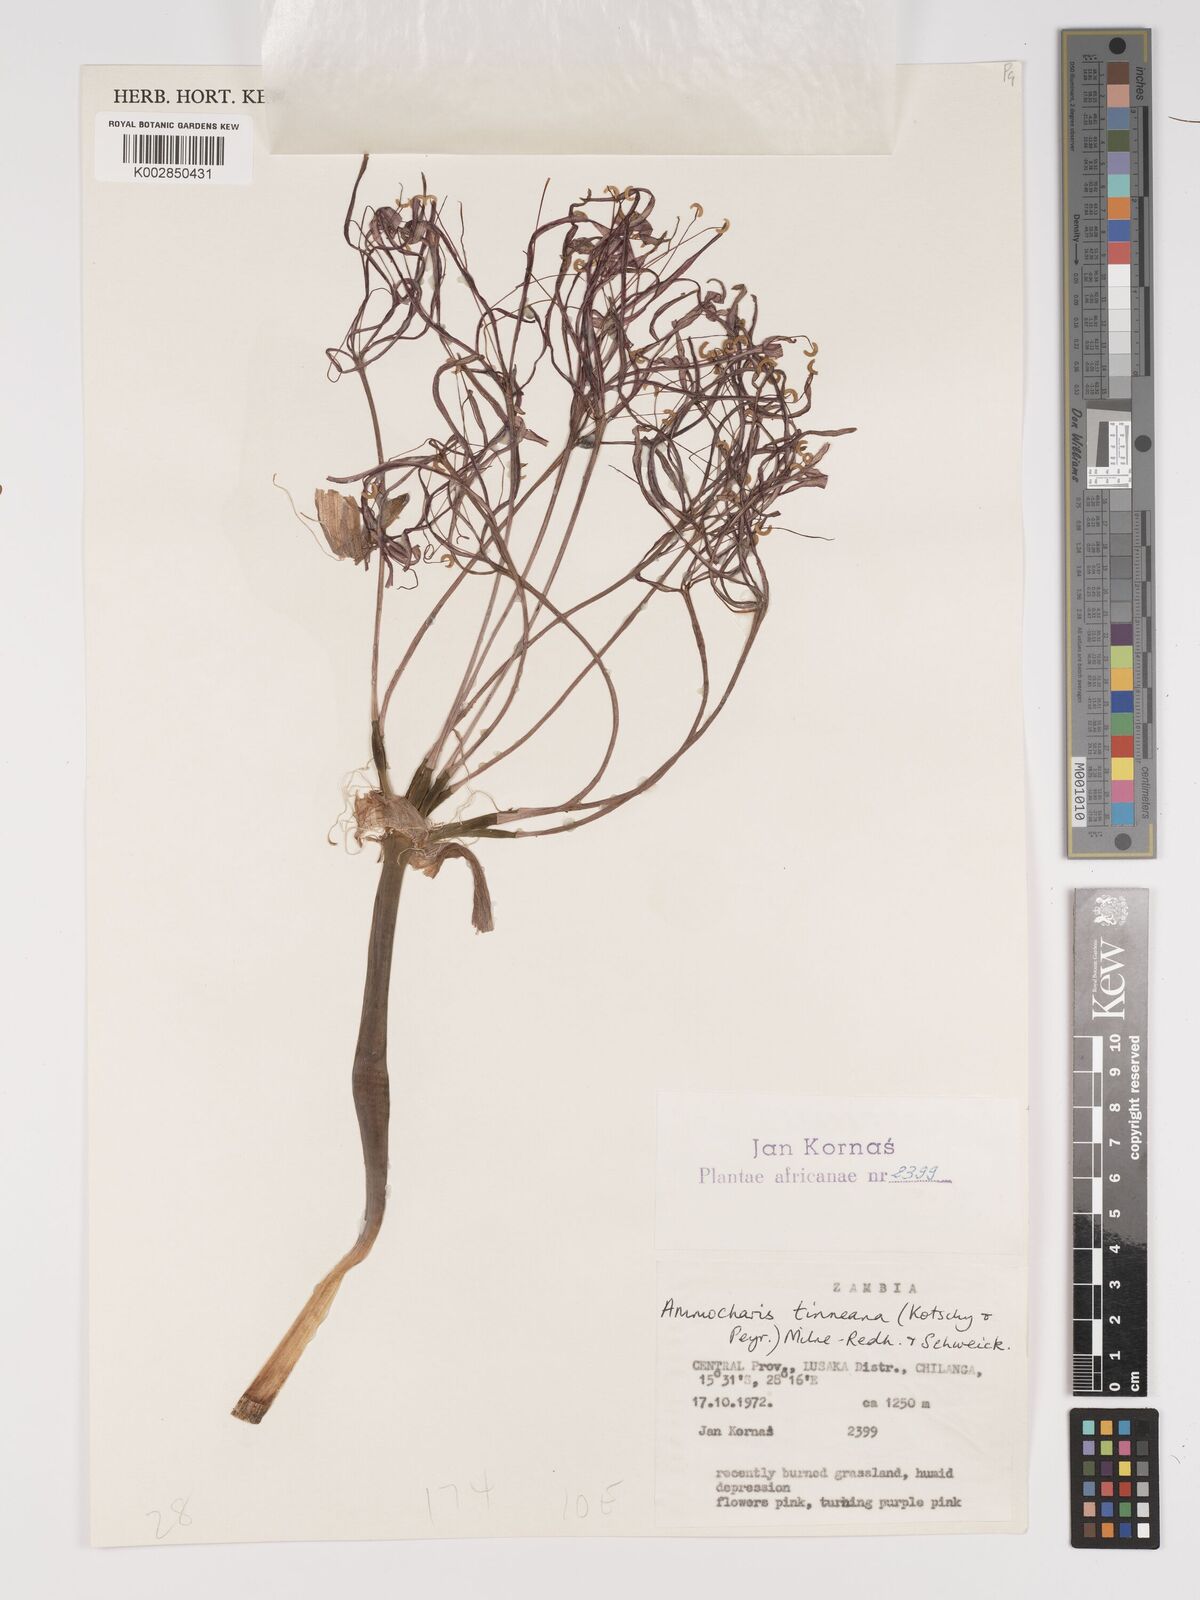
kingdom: Plantae
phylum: Tracheophyta
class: Liliopsida
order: Asparagales
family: Amaryllidaceae
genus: Ammocharis
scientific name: Ammocharis tinneana
